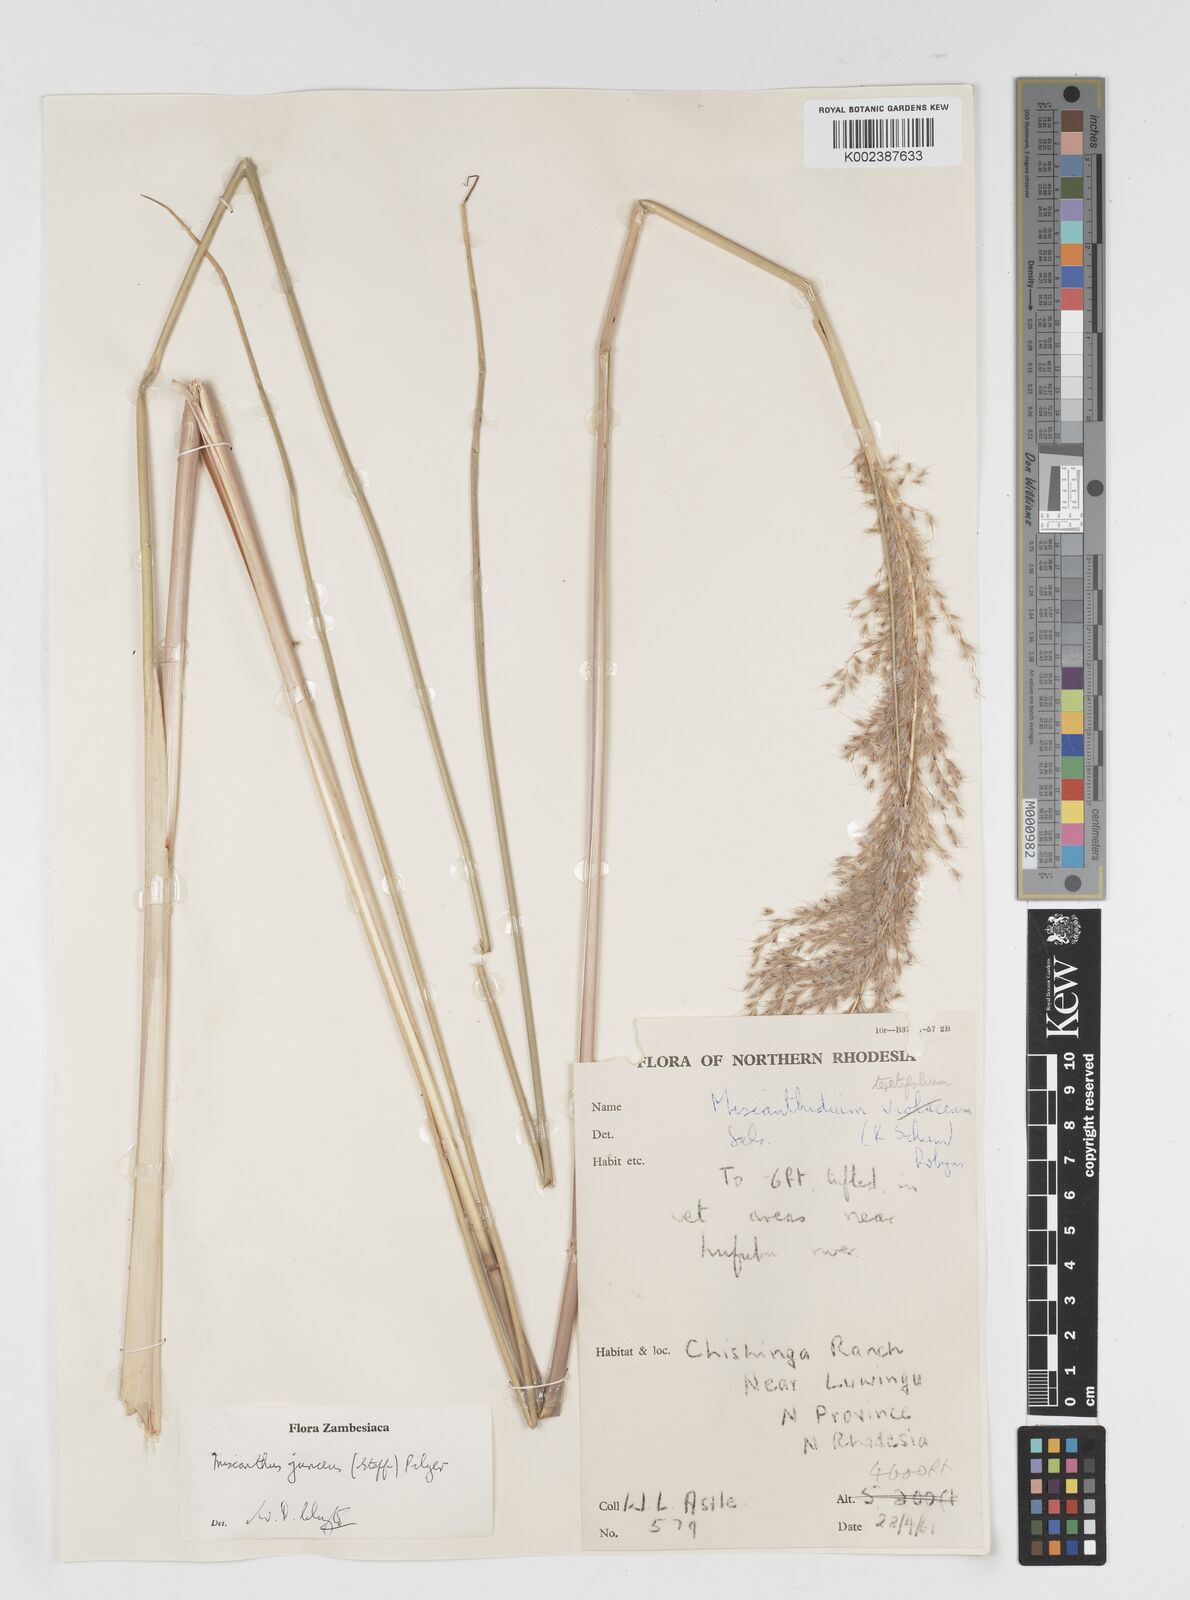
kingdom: Plantae
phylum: Tracheophyta
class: Liliopsida
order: Poales
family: Poaceae
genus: Miscanthidium
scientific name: Miscanthidium junceum
